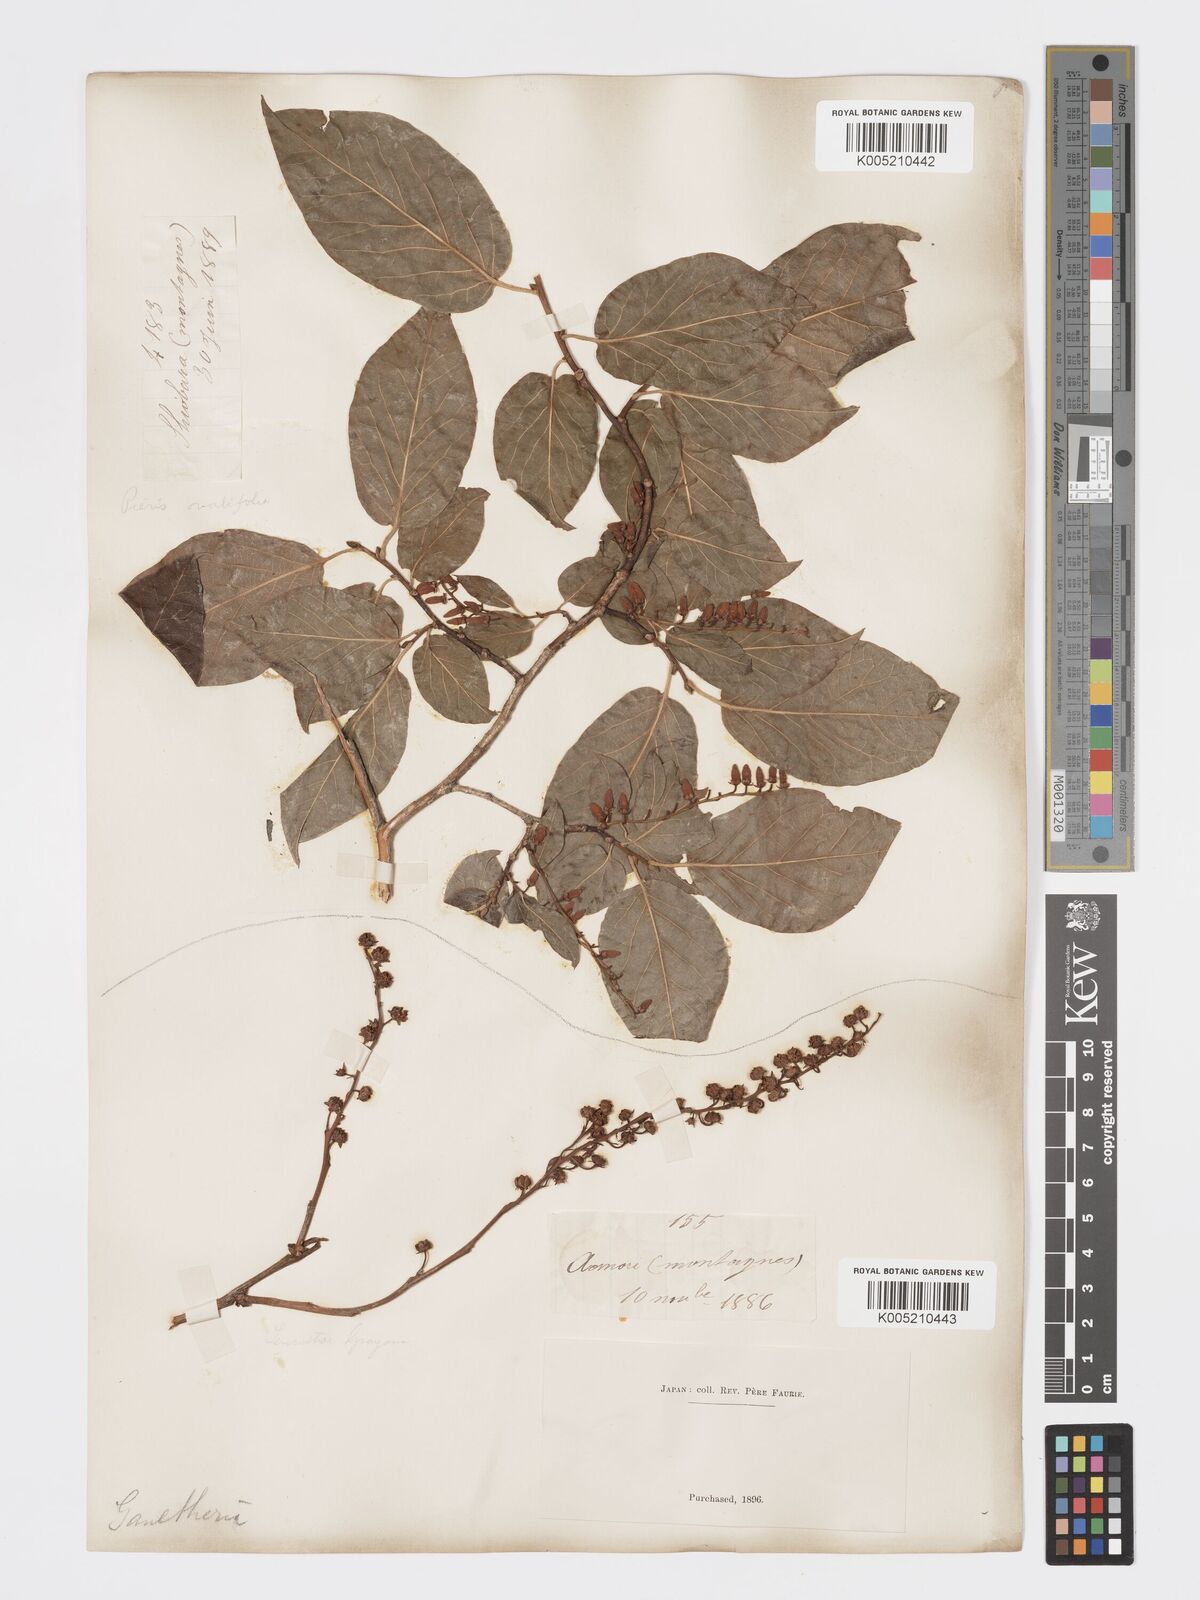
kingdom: Plantae
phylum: Tracheophyta
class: Magnoliopsida
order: Ericales
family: Ericaceae
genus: Lyonia
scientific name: Lyonia elliptica
